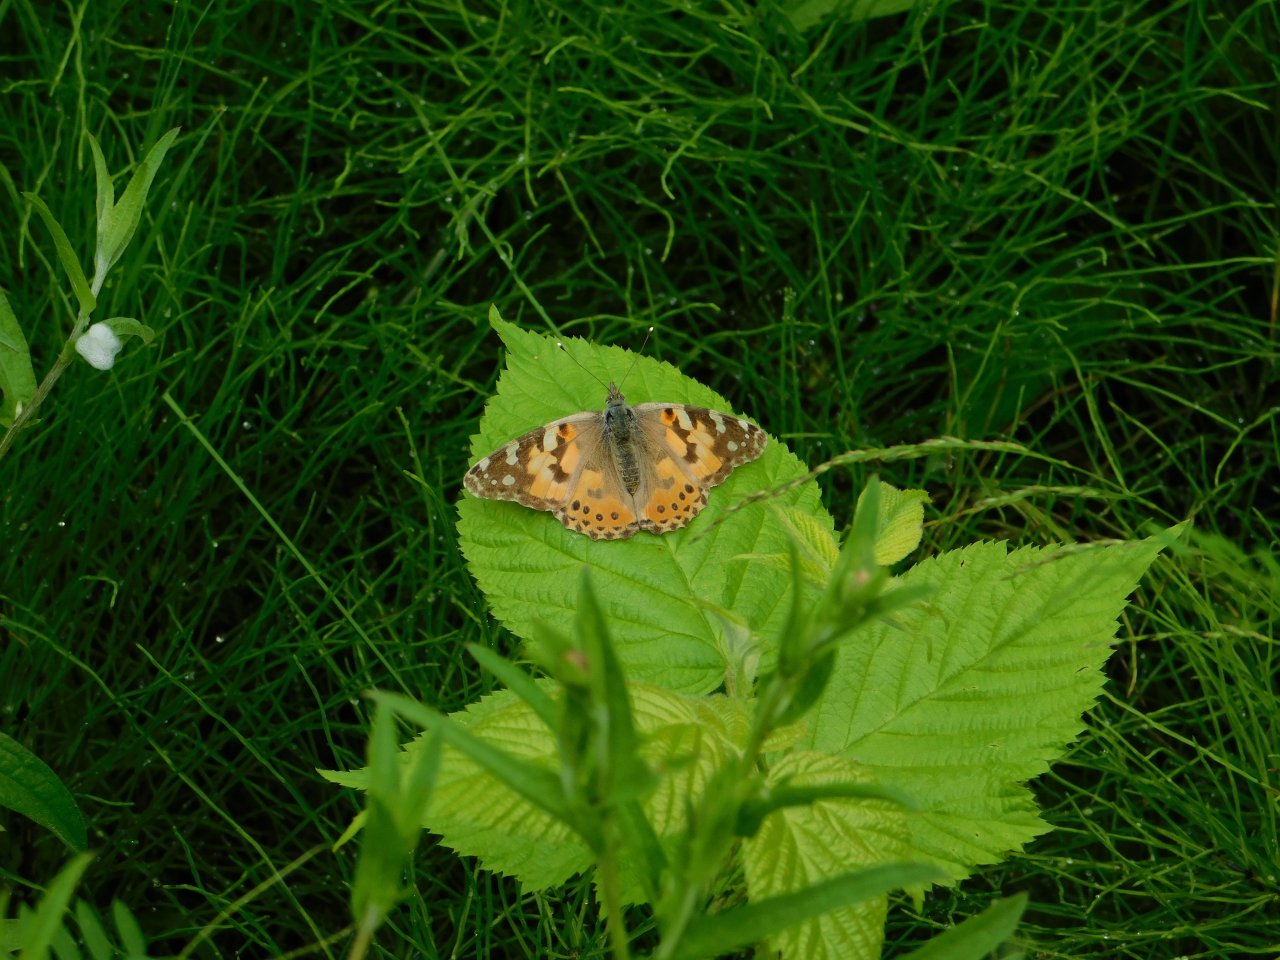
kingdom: Animalia
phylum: Arthropoda
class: Insecta
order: Lepidoptera
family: Nymphalidae
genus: Vanessa
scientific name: Vanessa cardui
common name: Painted Lady
